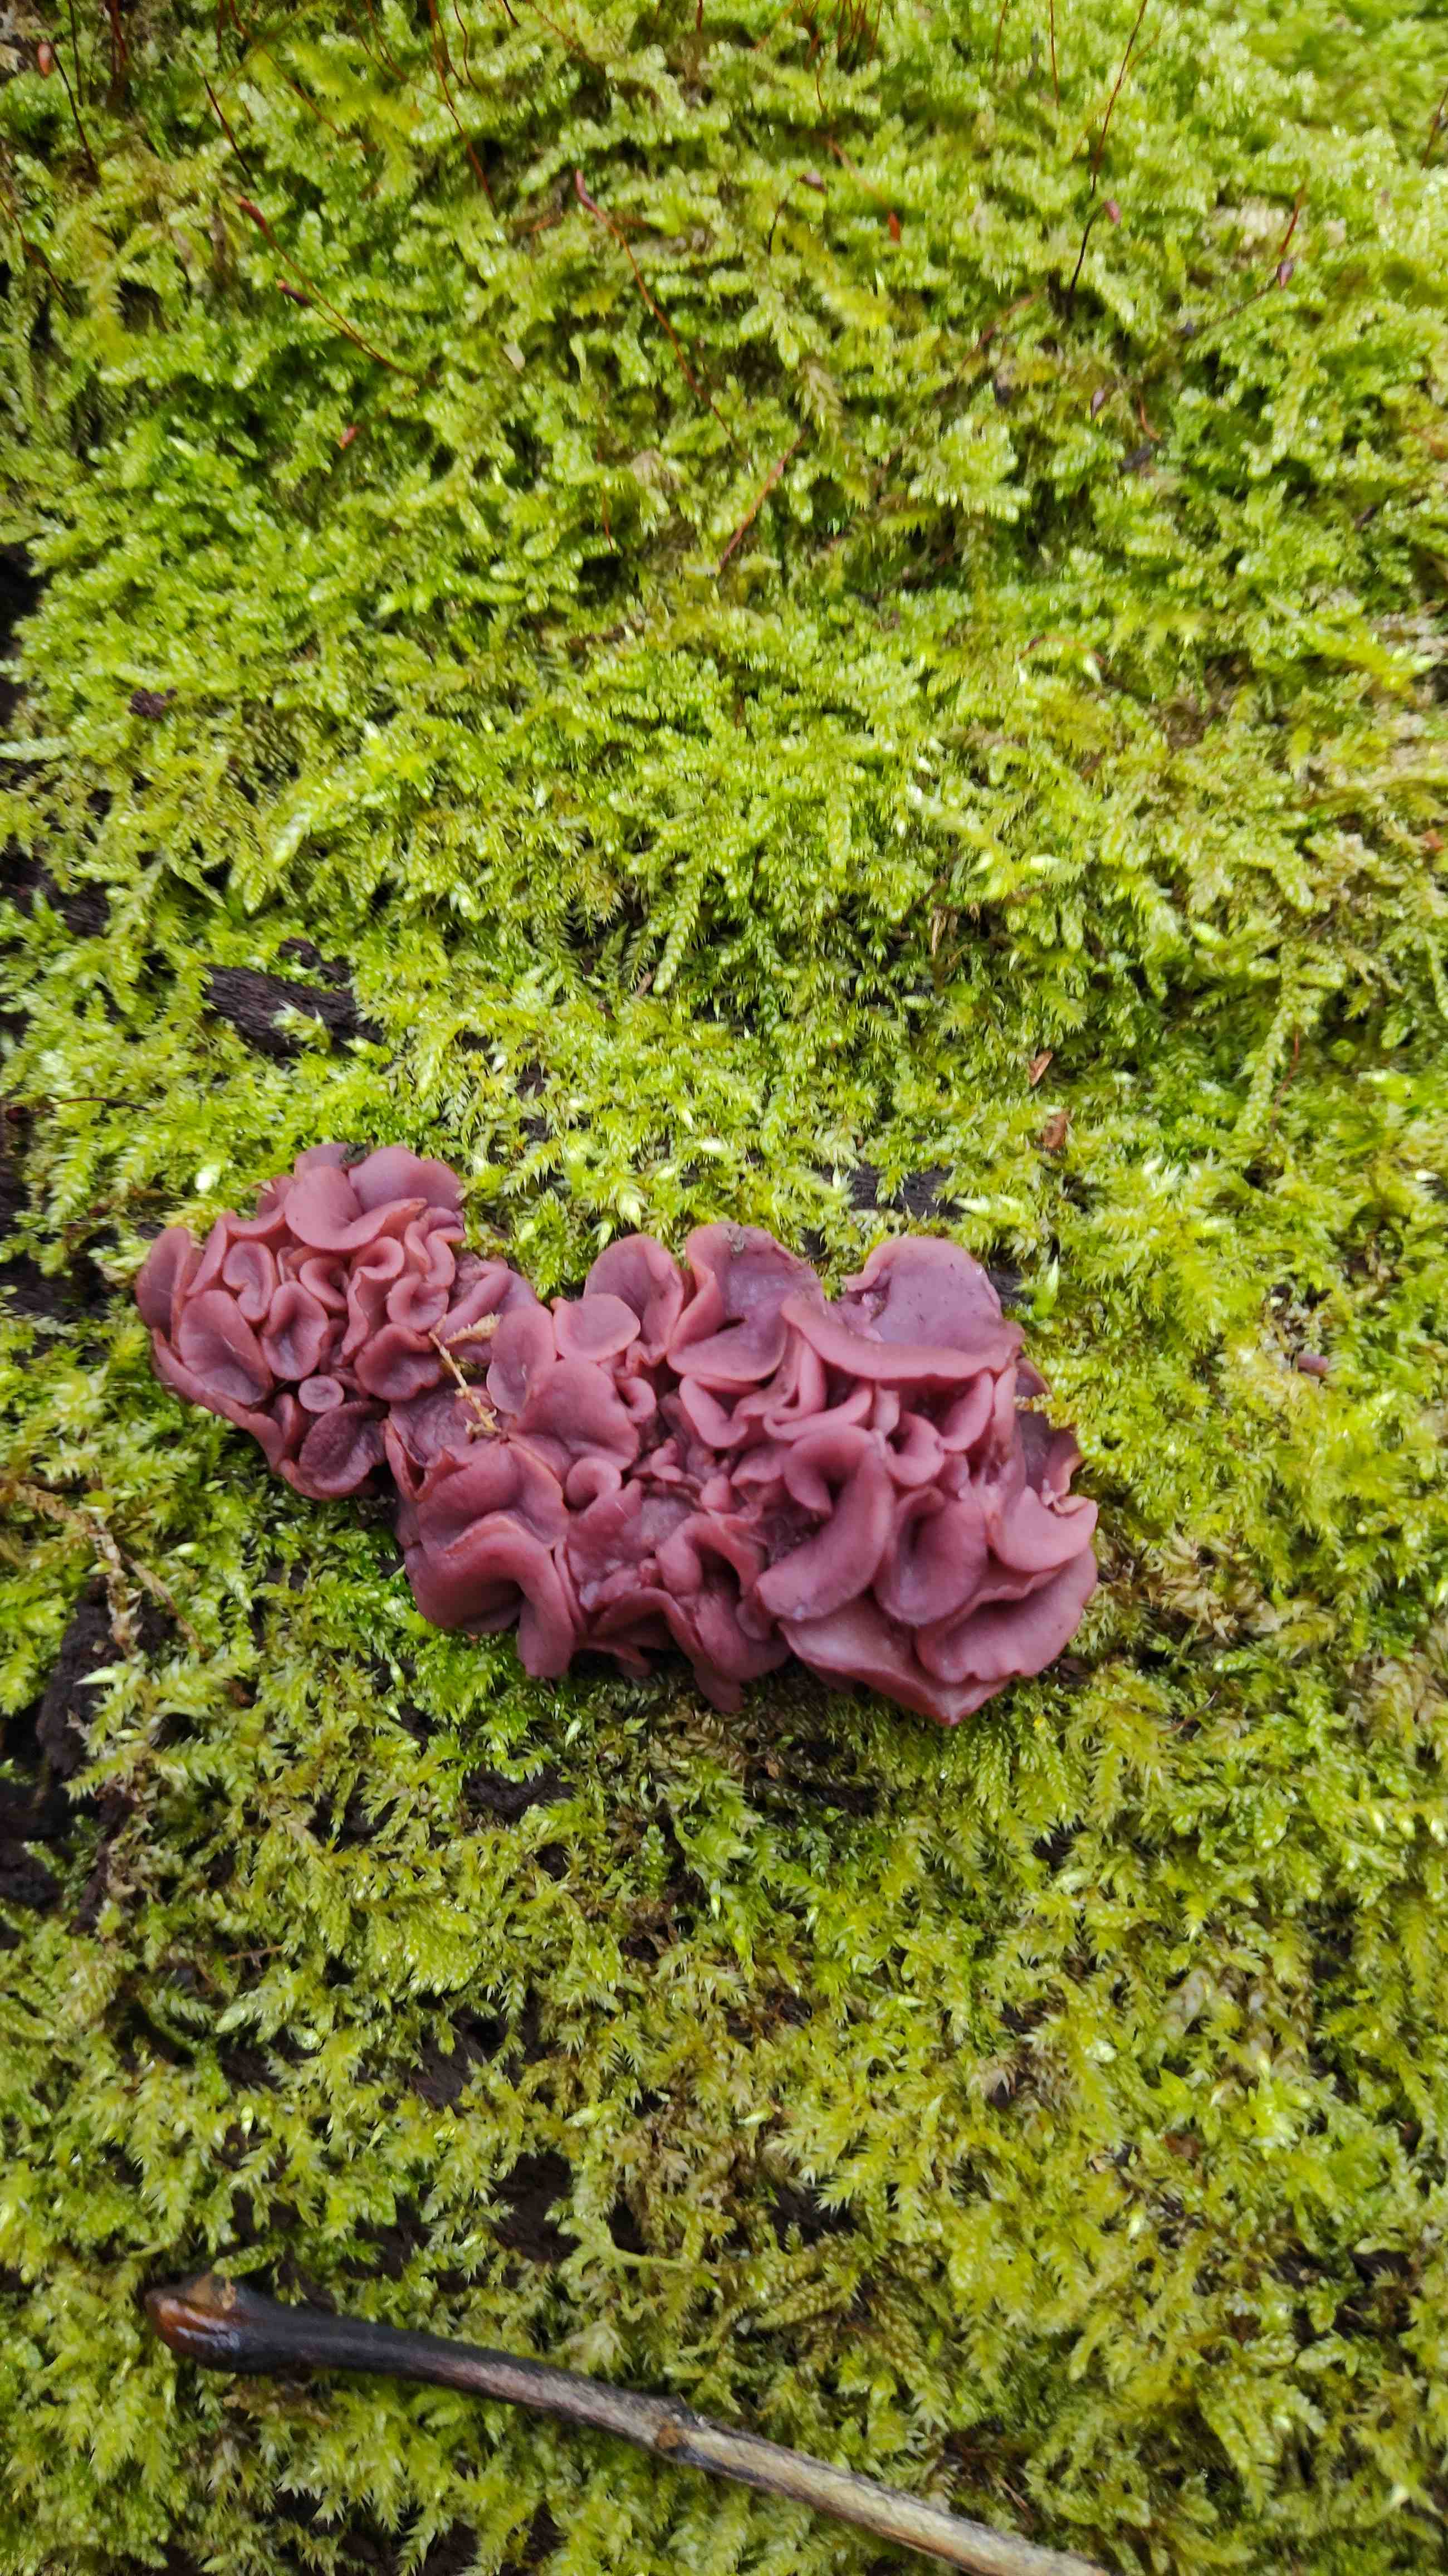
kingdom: Fungi
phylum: Ascomycota
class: Leotiomycetes
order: Helotiales
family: Gelatinodiscaceae
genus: Ascocoryne
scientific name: Ascocoryne
